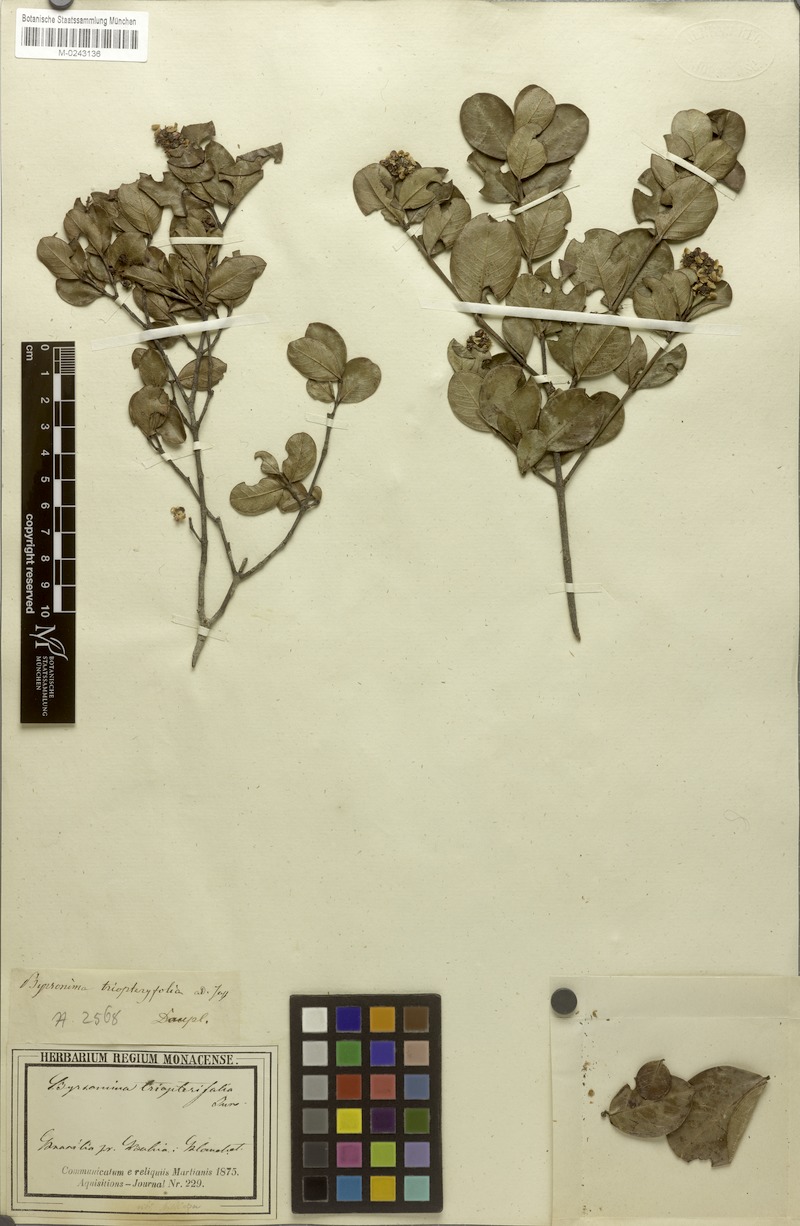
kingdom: Plantae
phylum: Tracheophyta
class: Magnoliopsida
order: Malpighiales
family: Malpighiaceae
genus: Byrsonima
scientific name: Byrsonima triopterifolia
